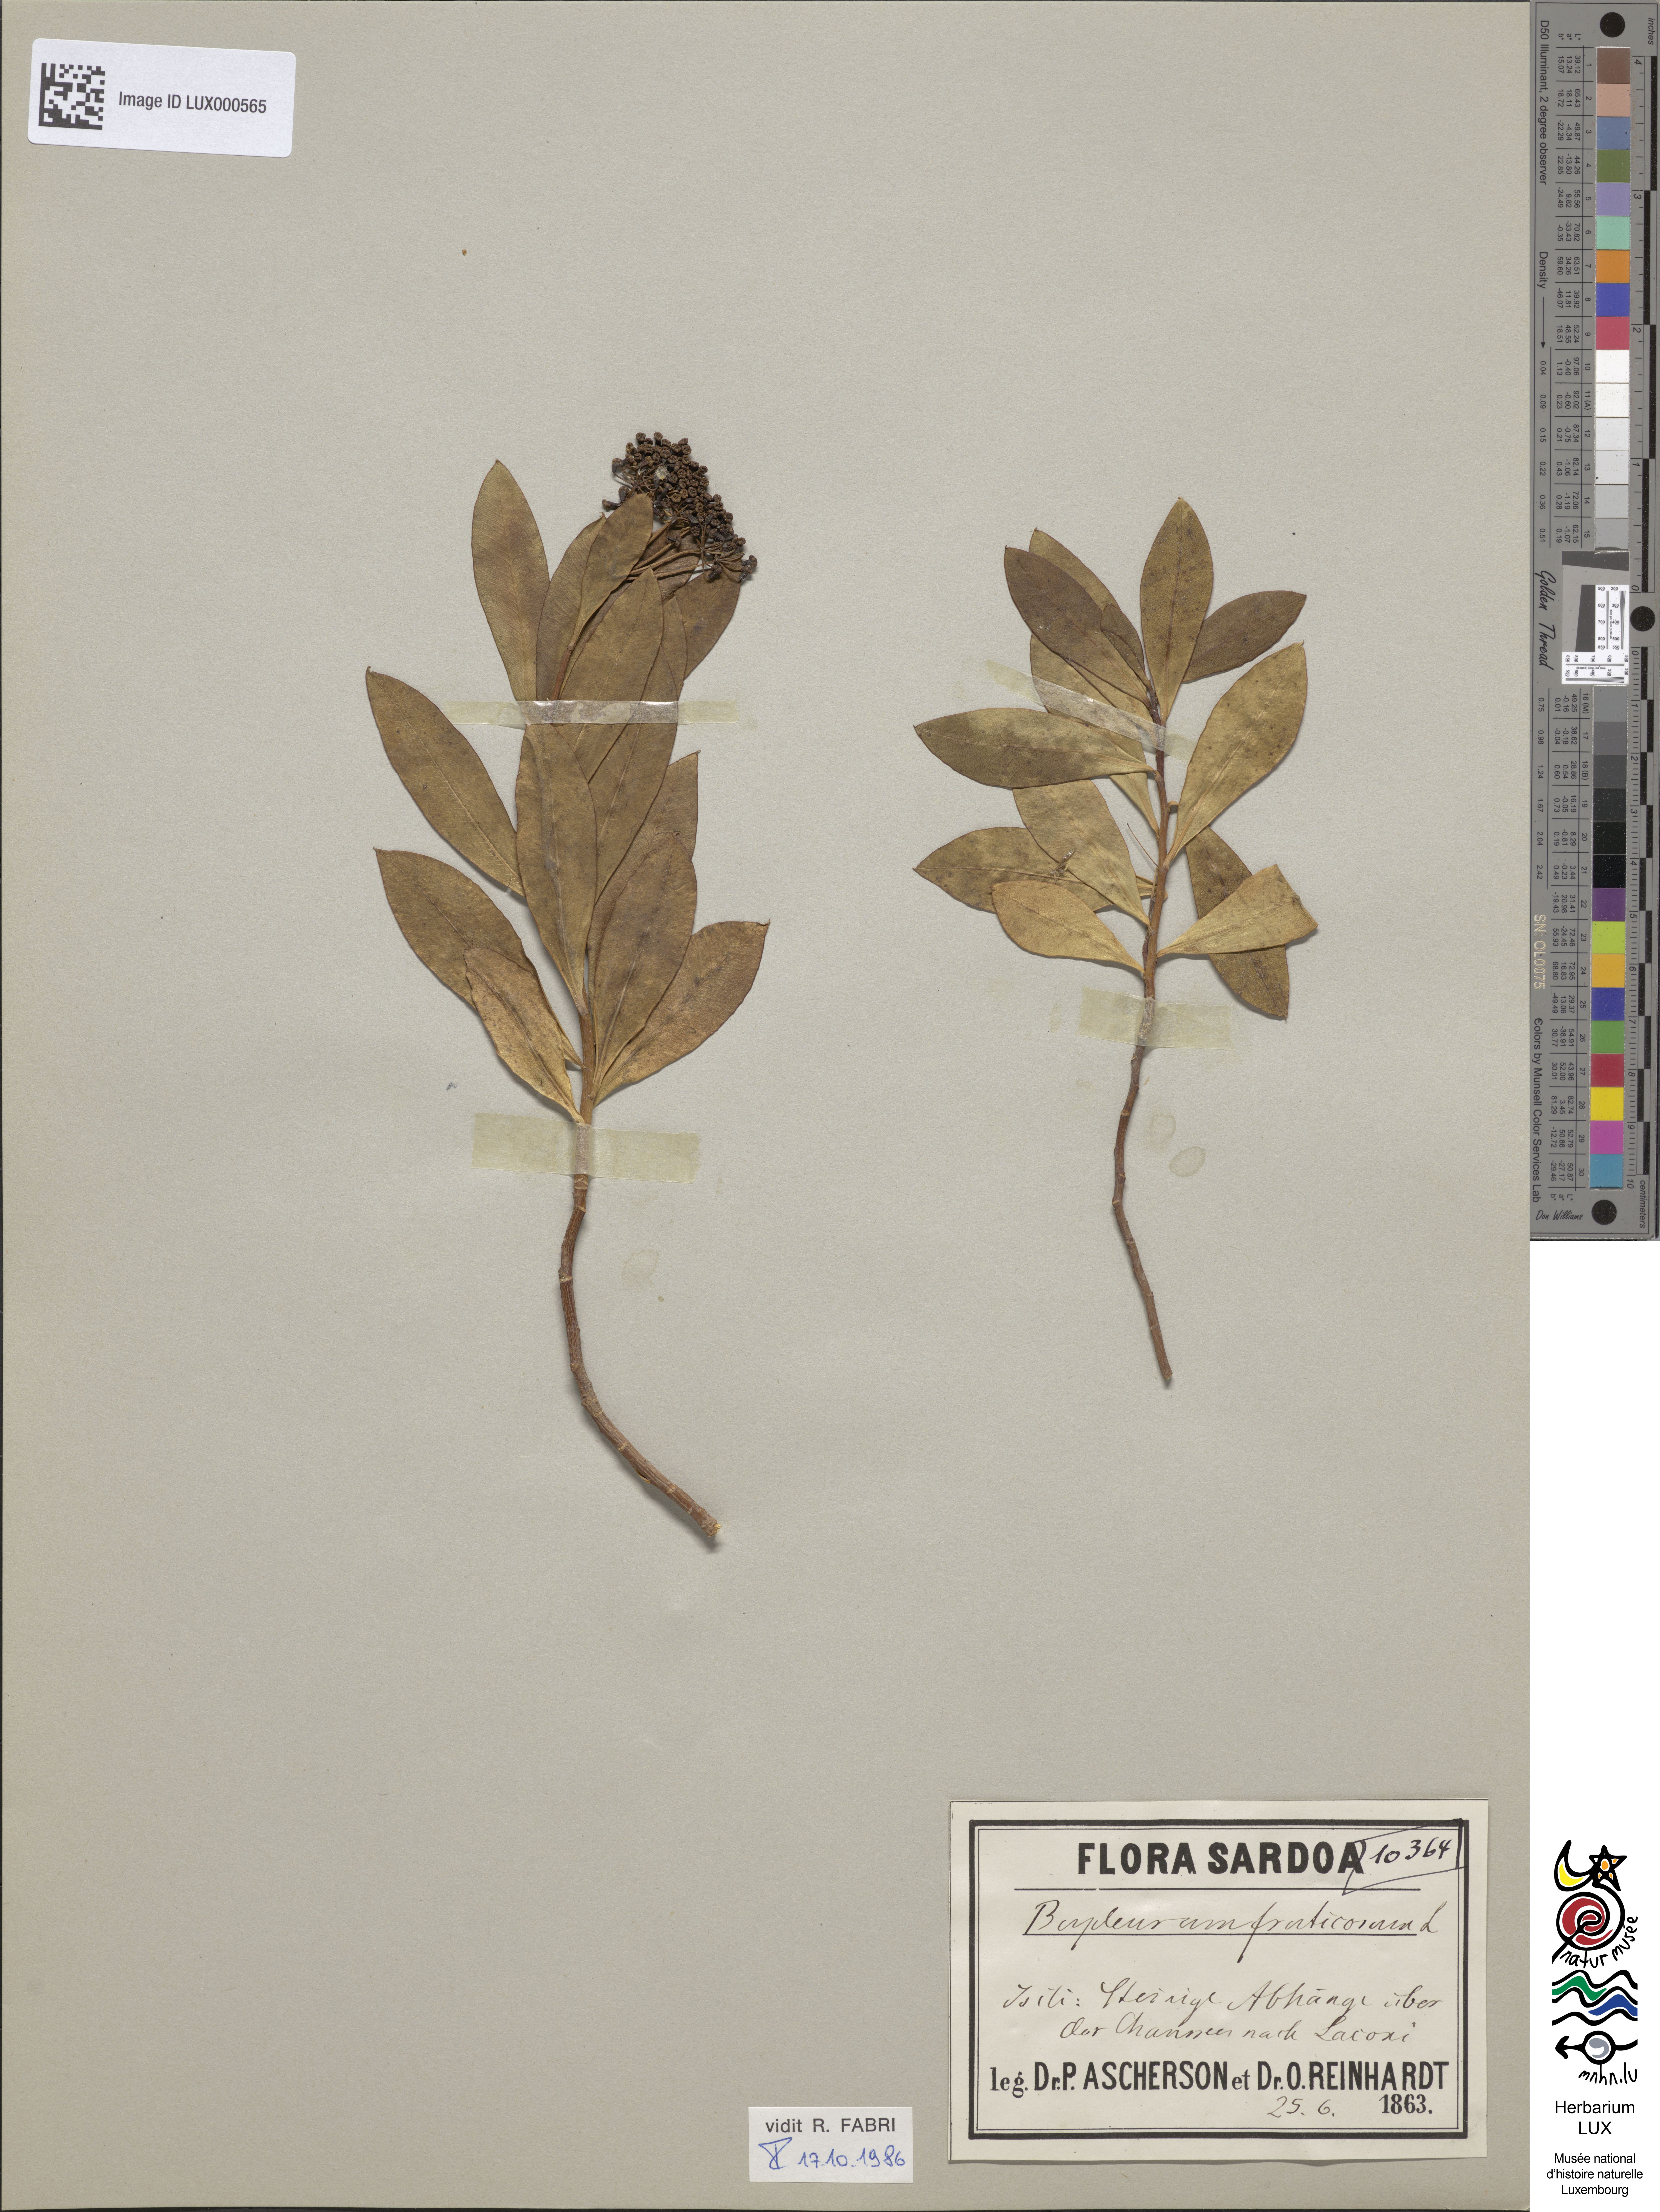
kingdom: Plantae
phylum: Tracheophyta
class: Magnoliopsida
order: Apiales
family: Apiaceae
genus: Bupleurum
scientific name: Bupleurum fruticosum
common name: Shrubby hare's-ear
